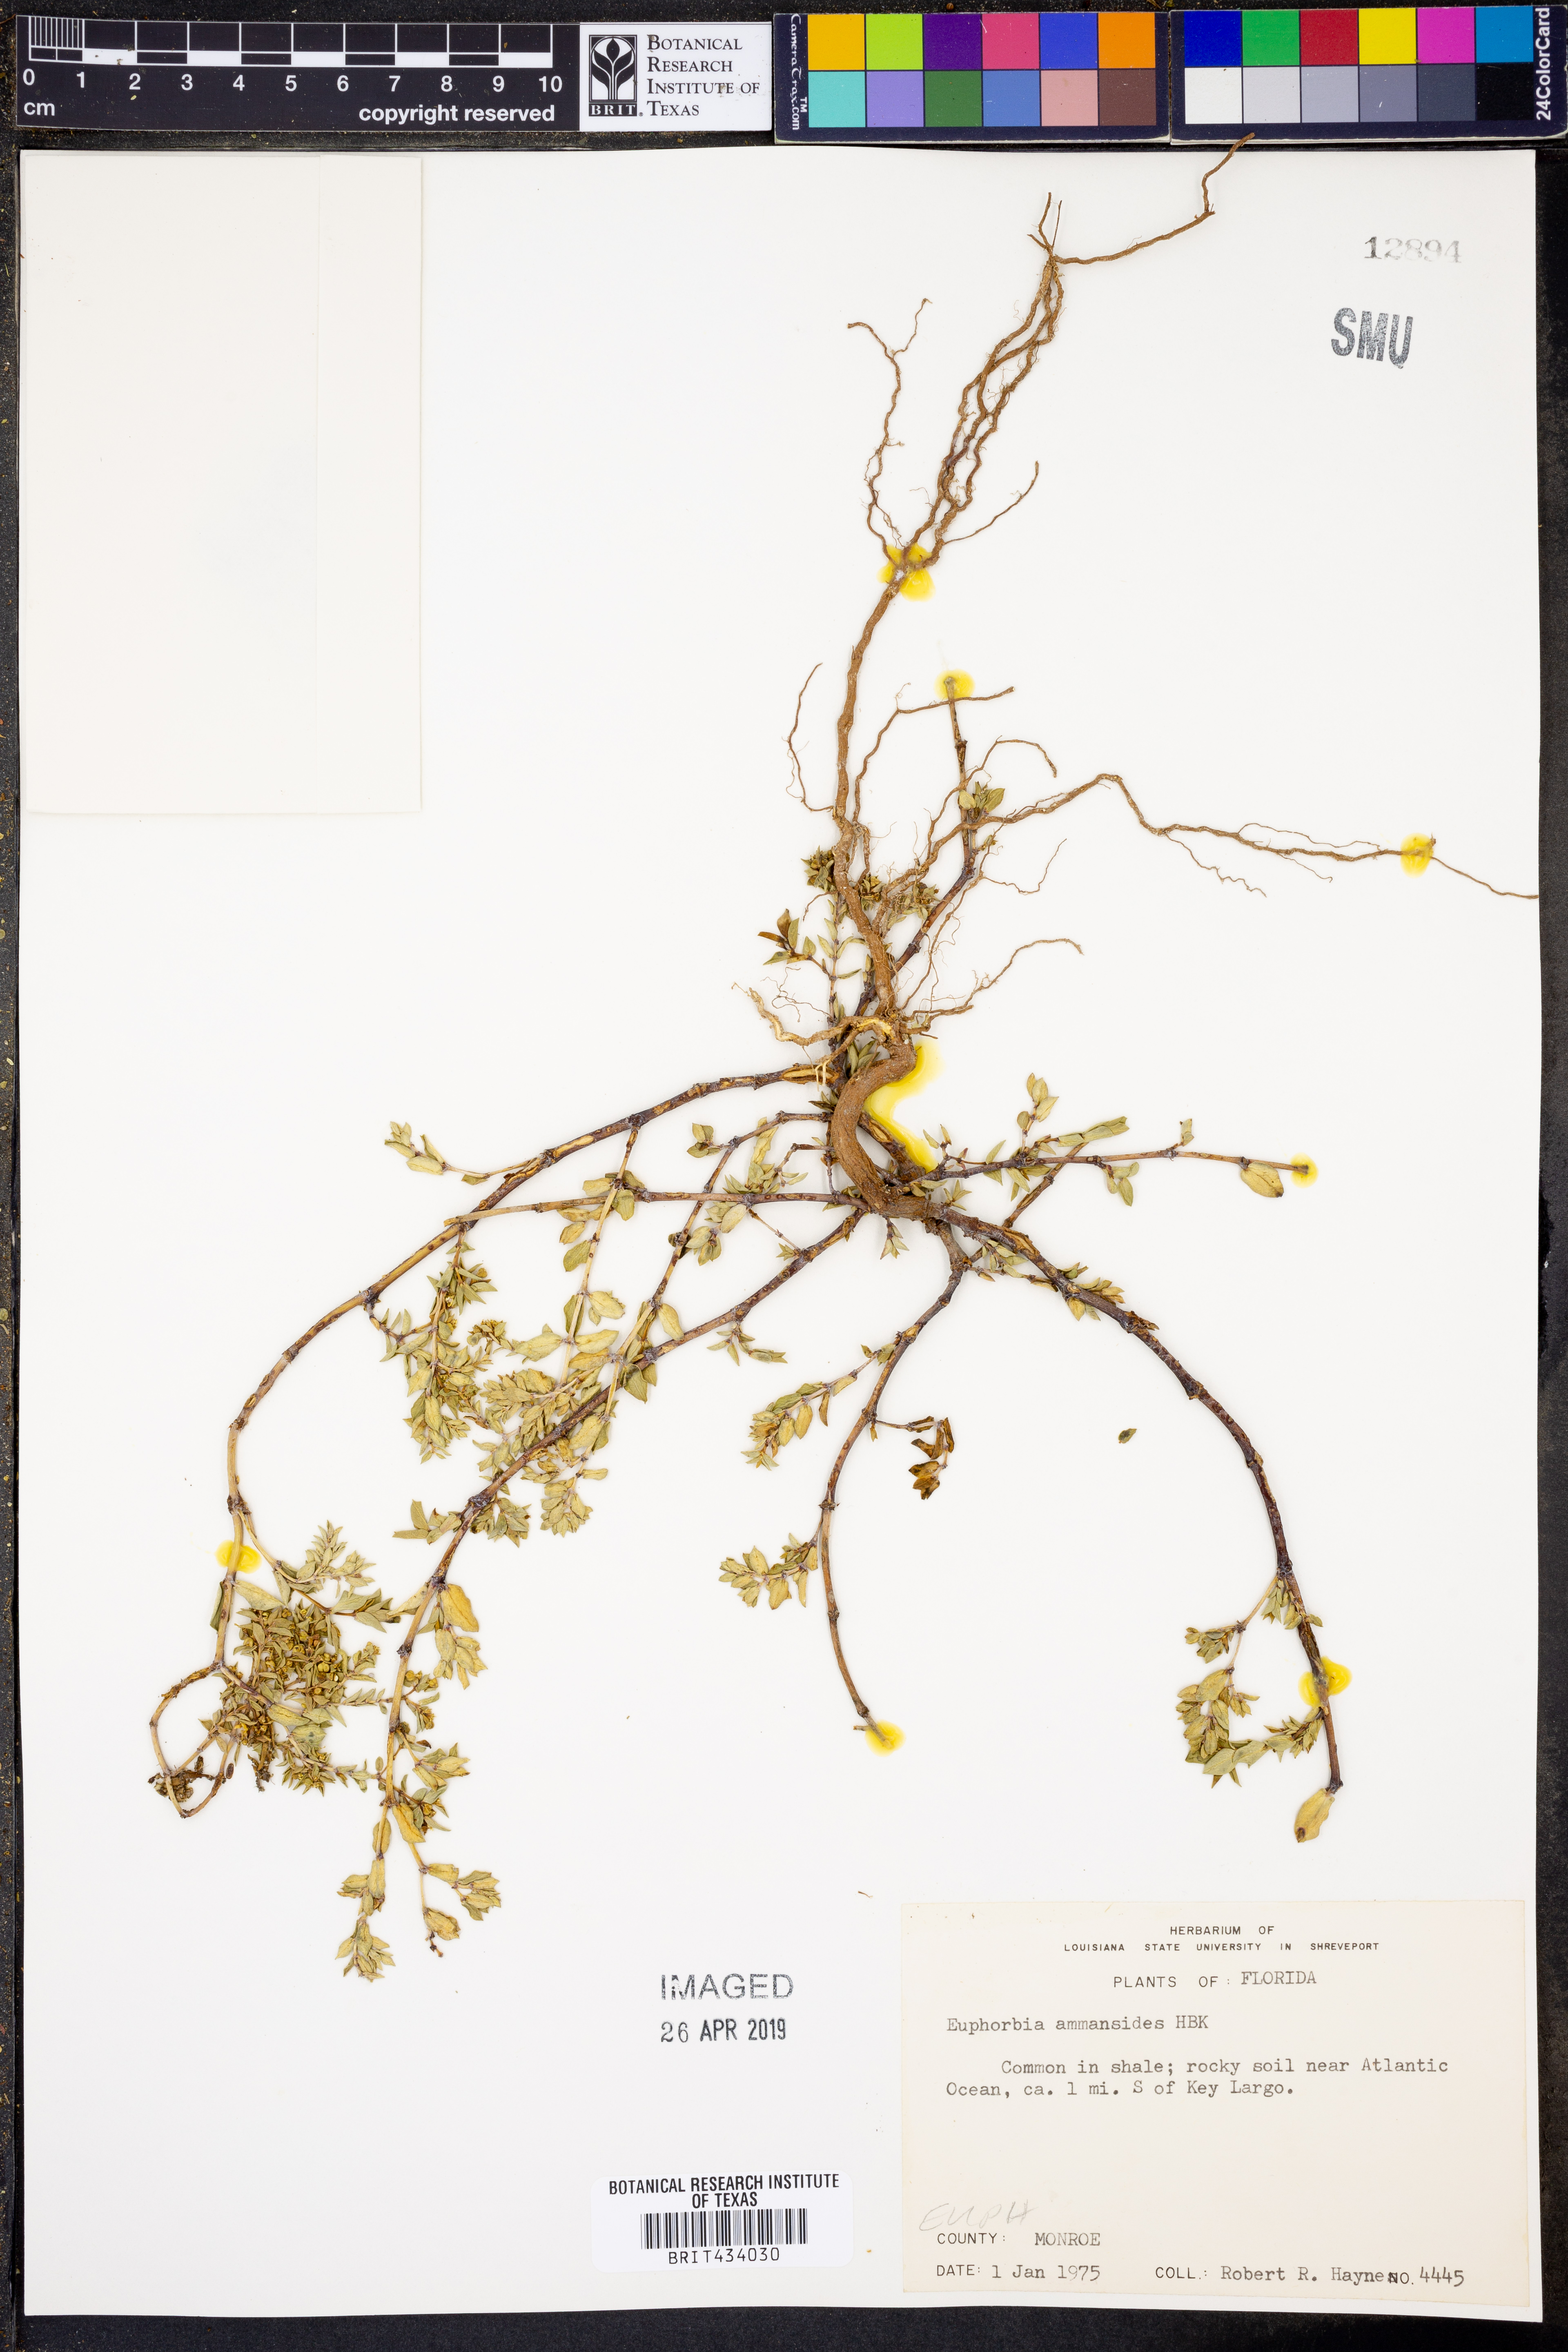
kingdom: Plantae
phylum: Tracheophyta
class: Magnoliopsida
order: Malpighiales
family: Euphorbiaceae
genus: Euphorbia
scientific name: Euphorbia bombensis
